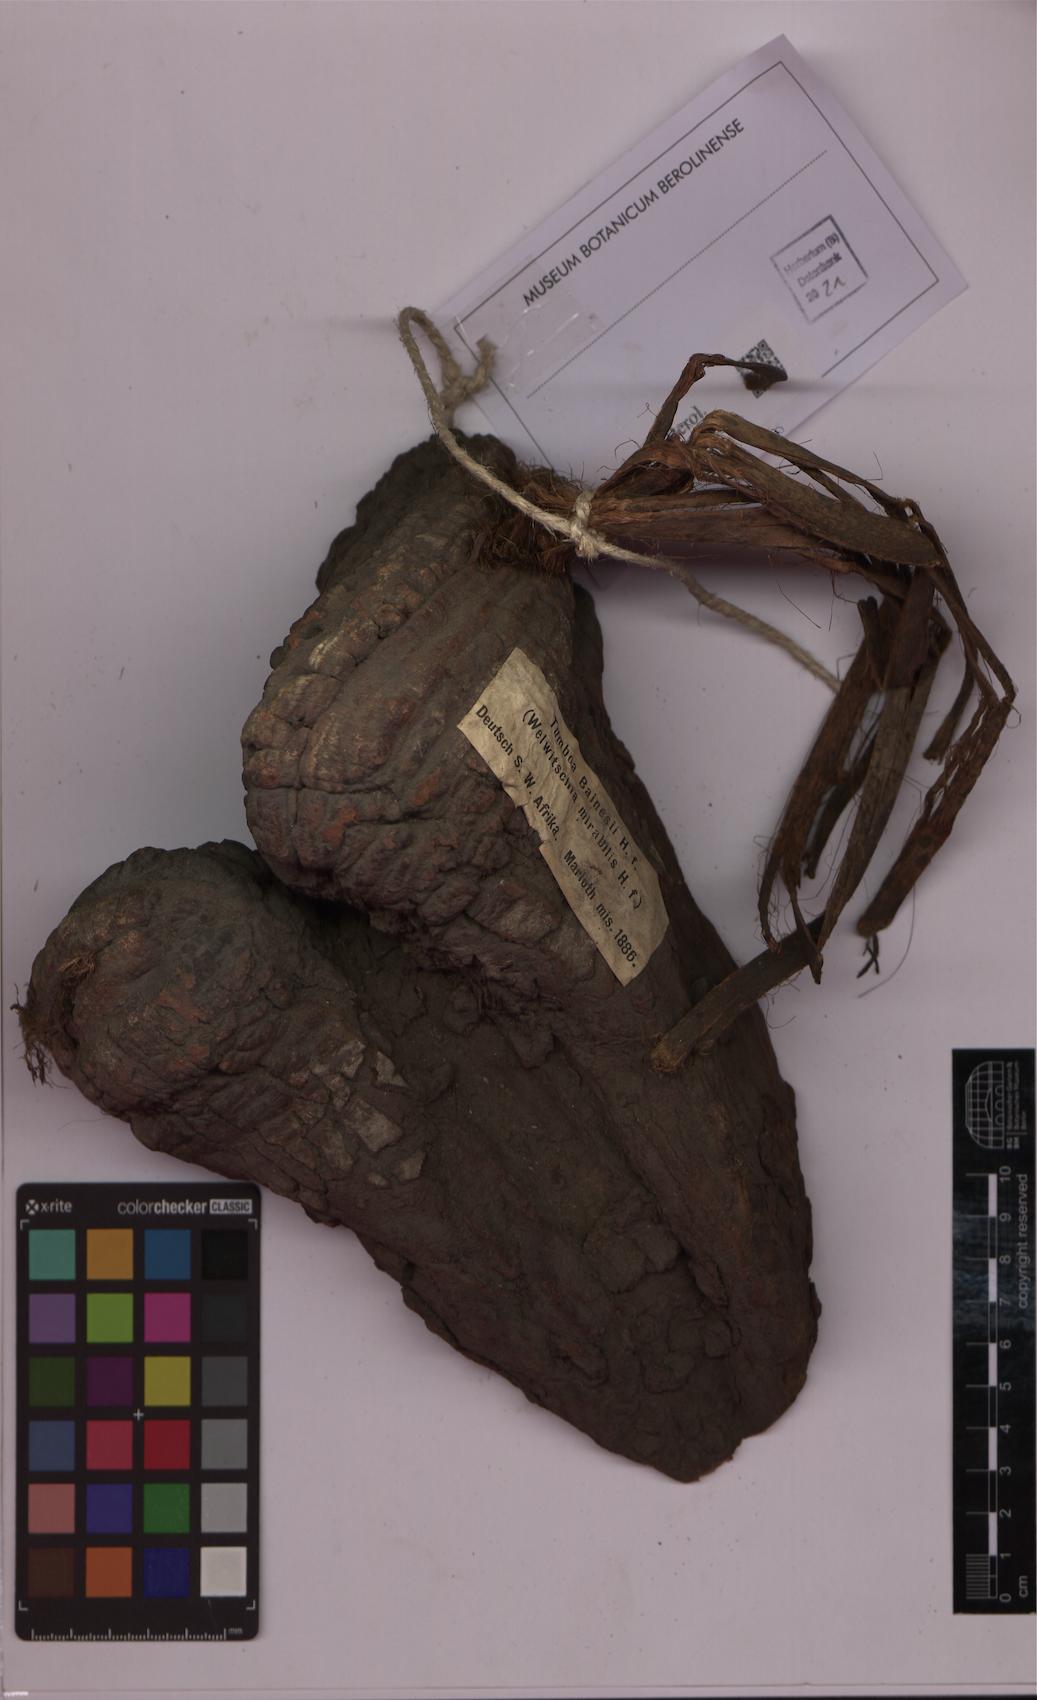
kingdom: Plantae
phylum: Tracheophyta
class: Gnetopsida
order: Welwitschiales
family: Welwitschiaceae
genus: Welwitschia
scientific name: Welwitschia mirabilis
